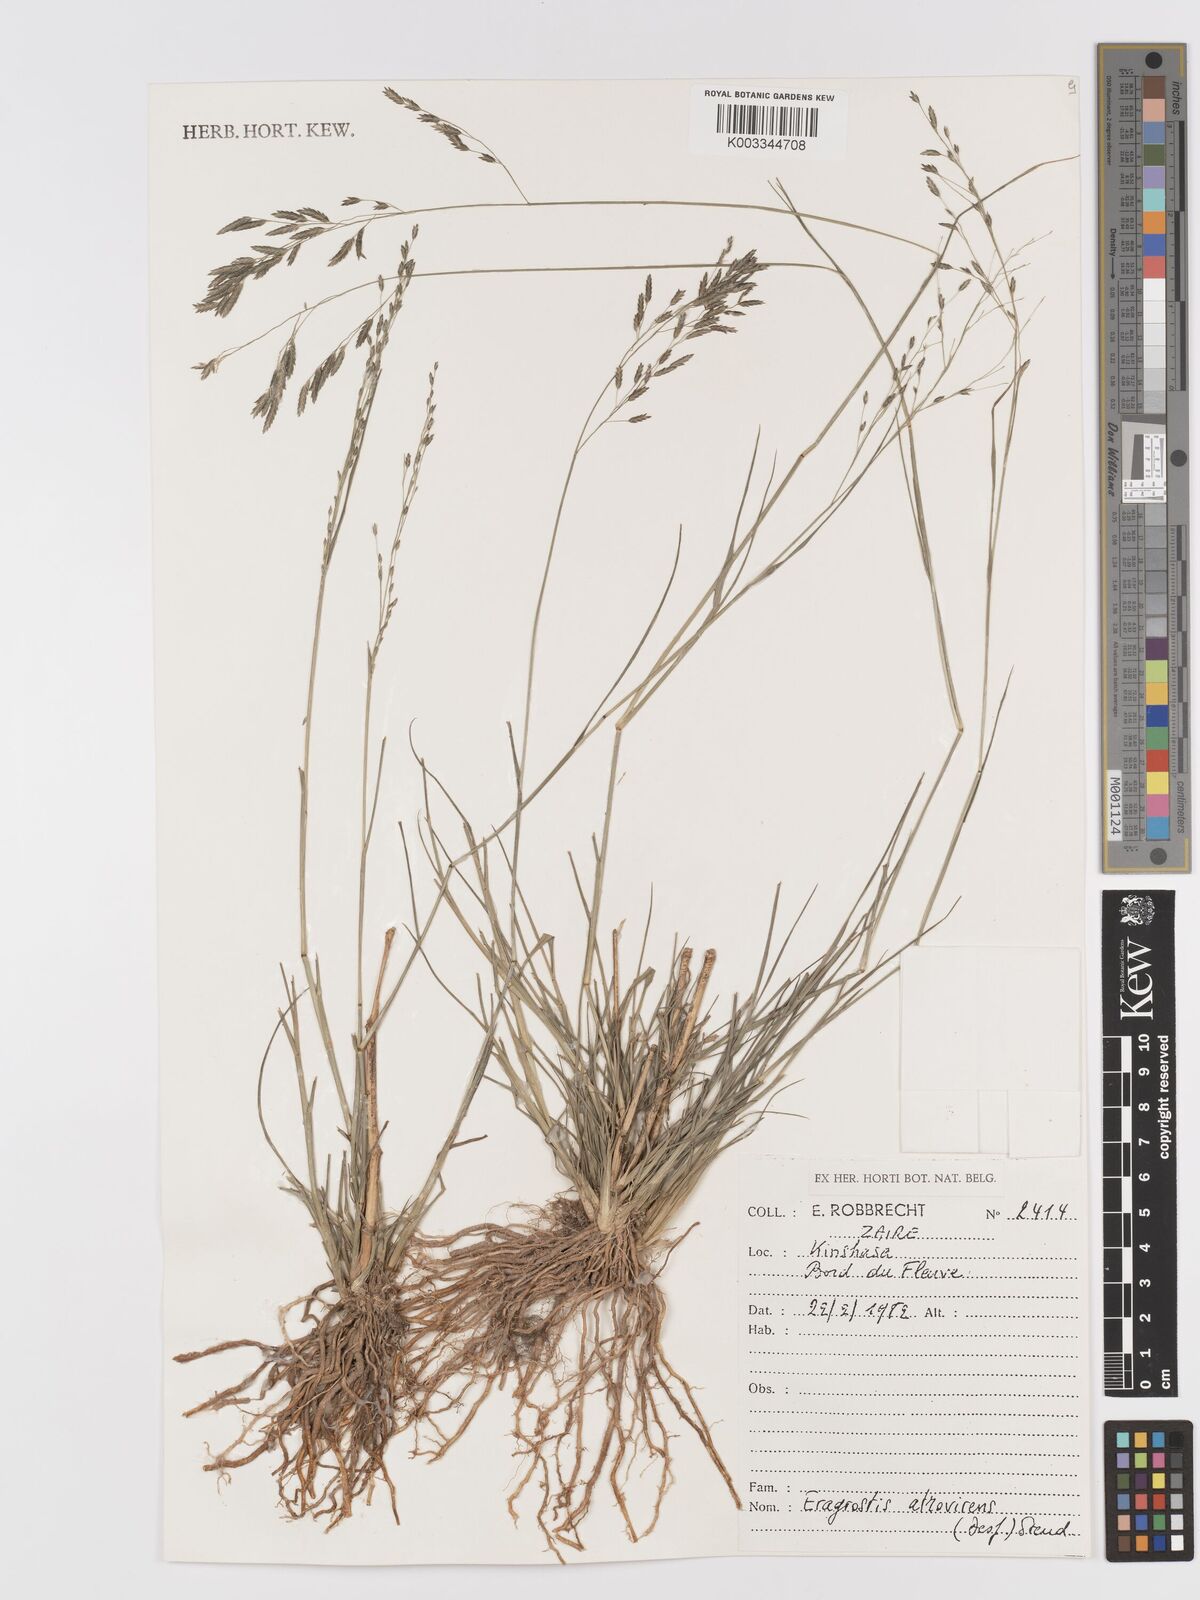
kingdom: Plantae
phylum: Tracheophyta
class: Liliopsida
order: Poales
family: Poaceae
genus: Eragrostis
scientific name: Eragrostis atrovirens
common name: Thalia lovegrass
